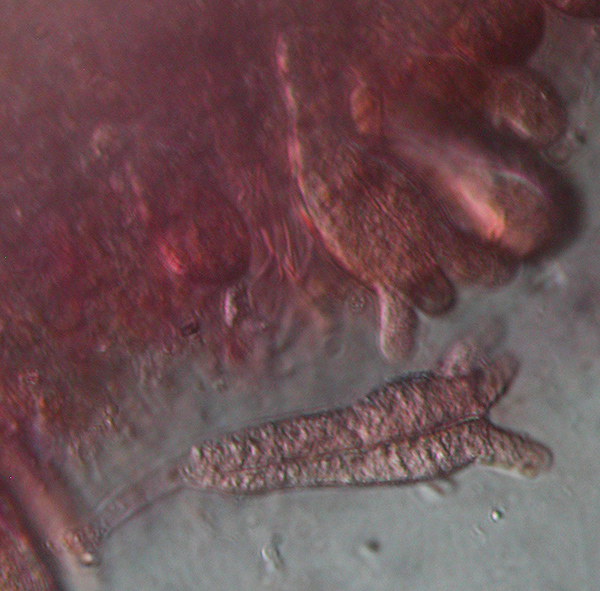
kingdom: Fungi
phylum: Basidiomycota
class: Agaricomycetes
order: Auriculariales
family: Auriculariaceae
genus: Heteroradulum
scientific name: Heteroradulum deglubens
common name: bævreskorpe
